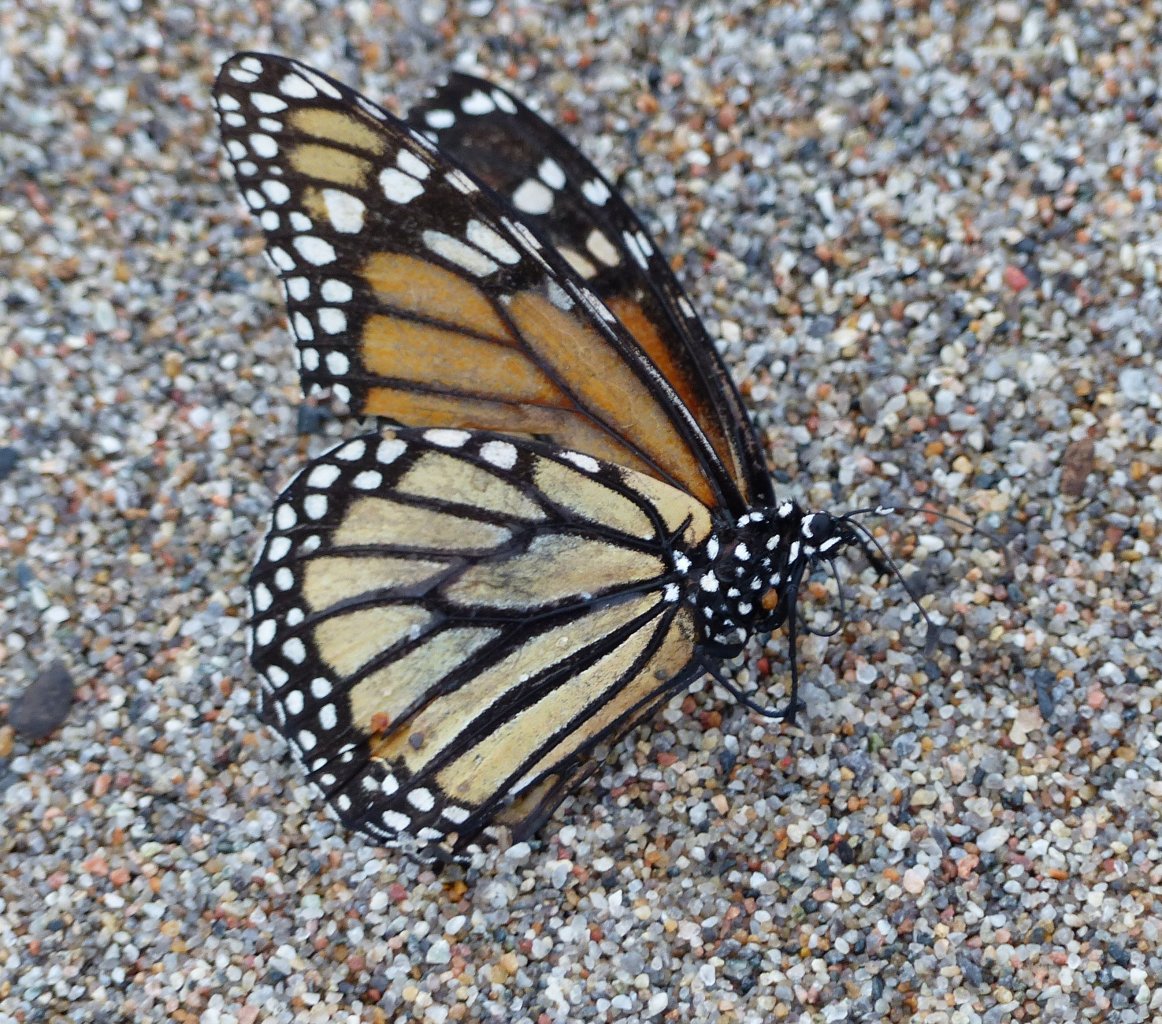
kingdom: Animalia
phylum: Arthropoda
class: Insecta
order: Lepidoptera
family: Nymphalidae
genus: Danaus
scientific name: Danaus plexippus
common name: Monarch
